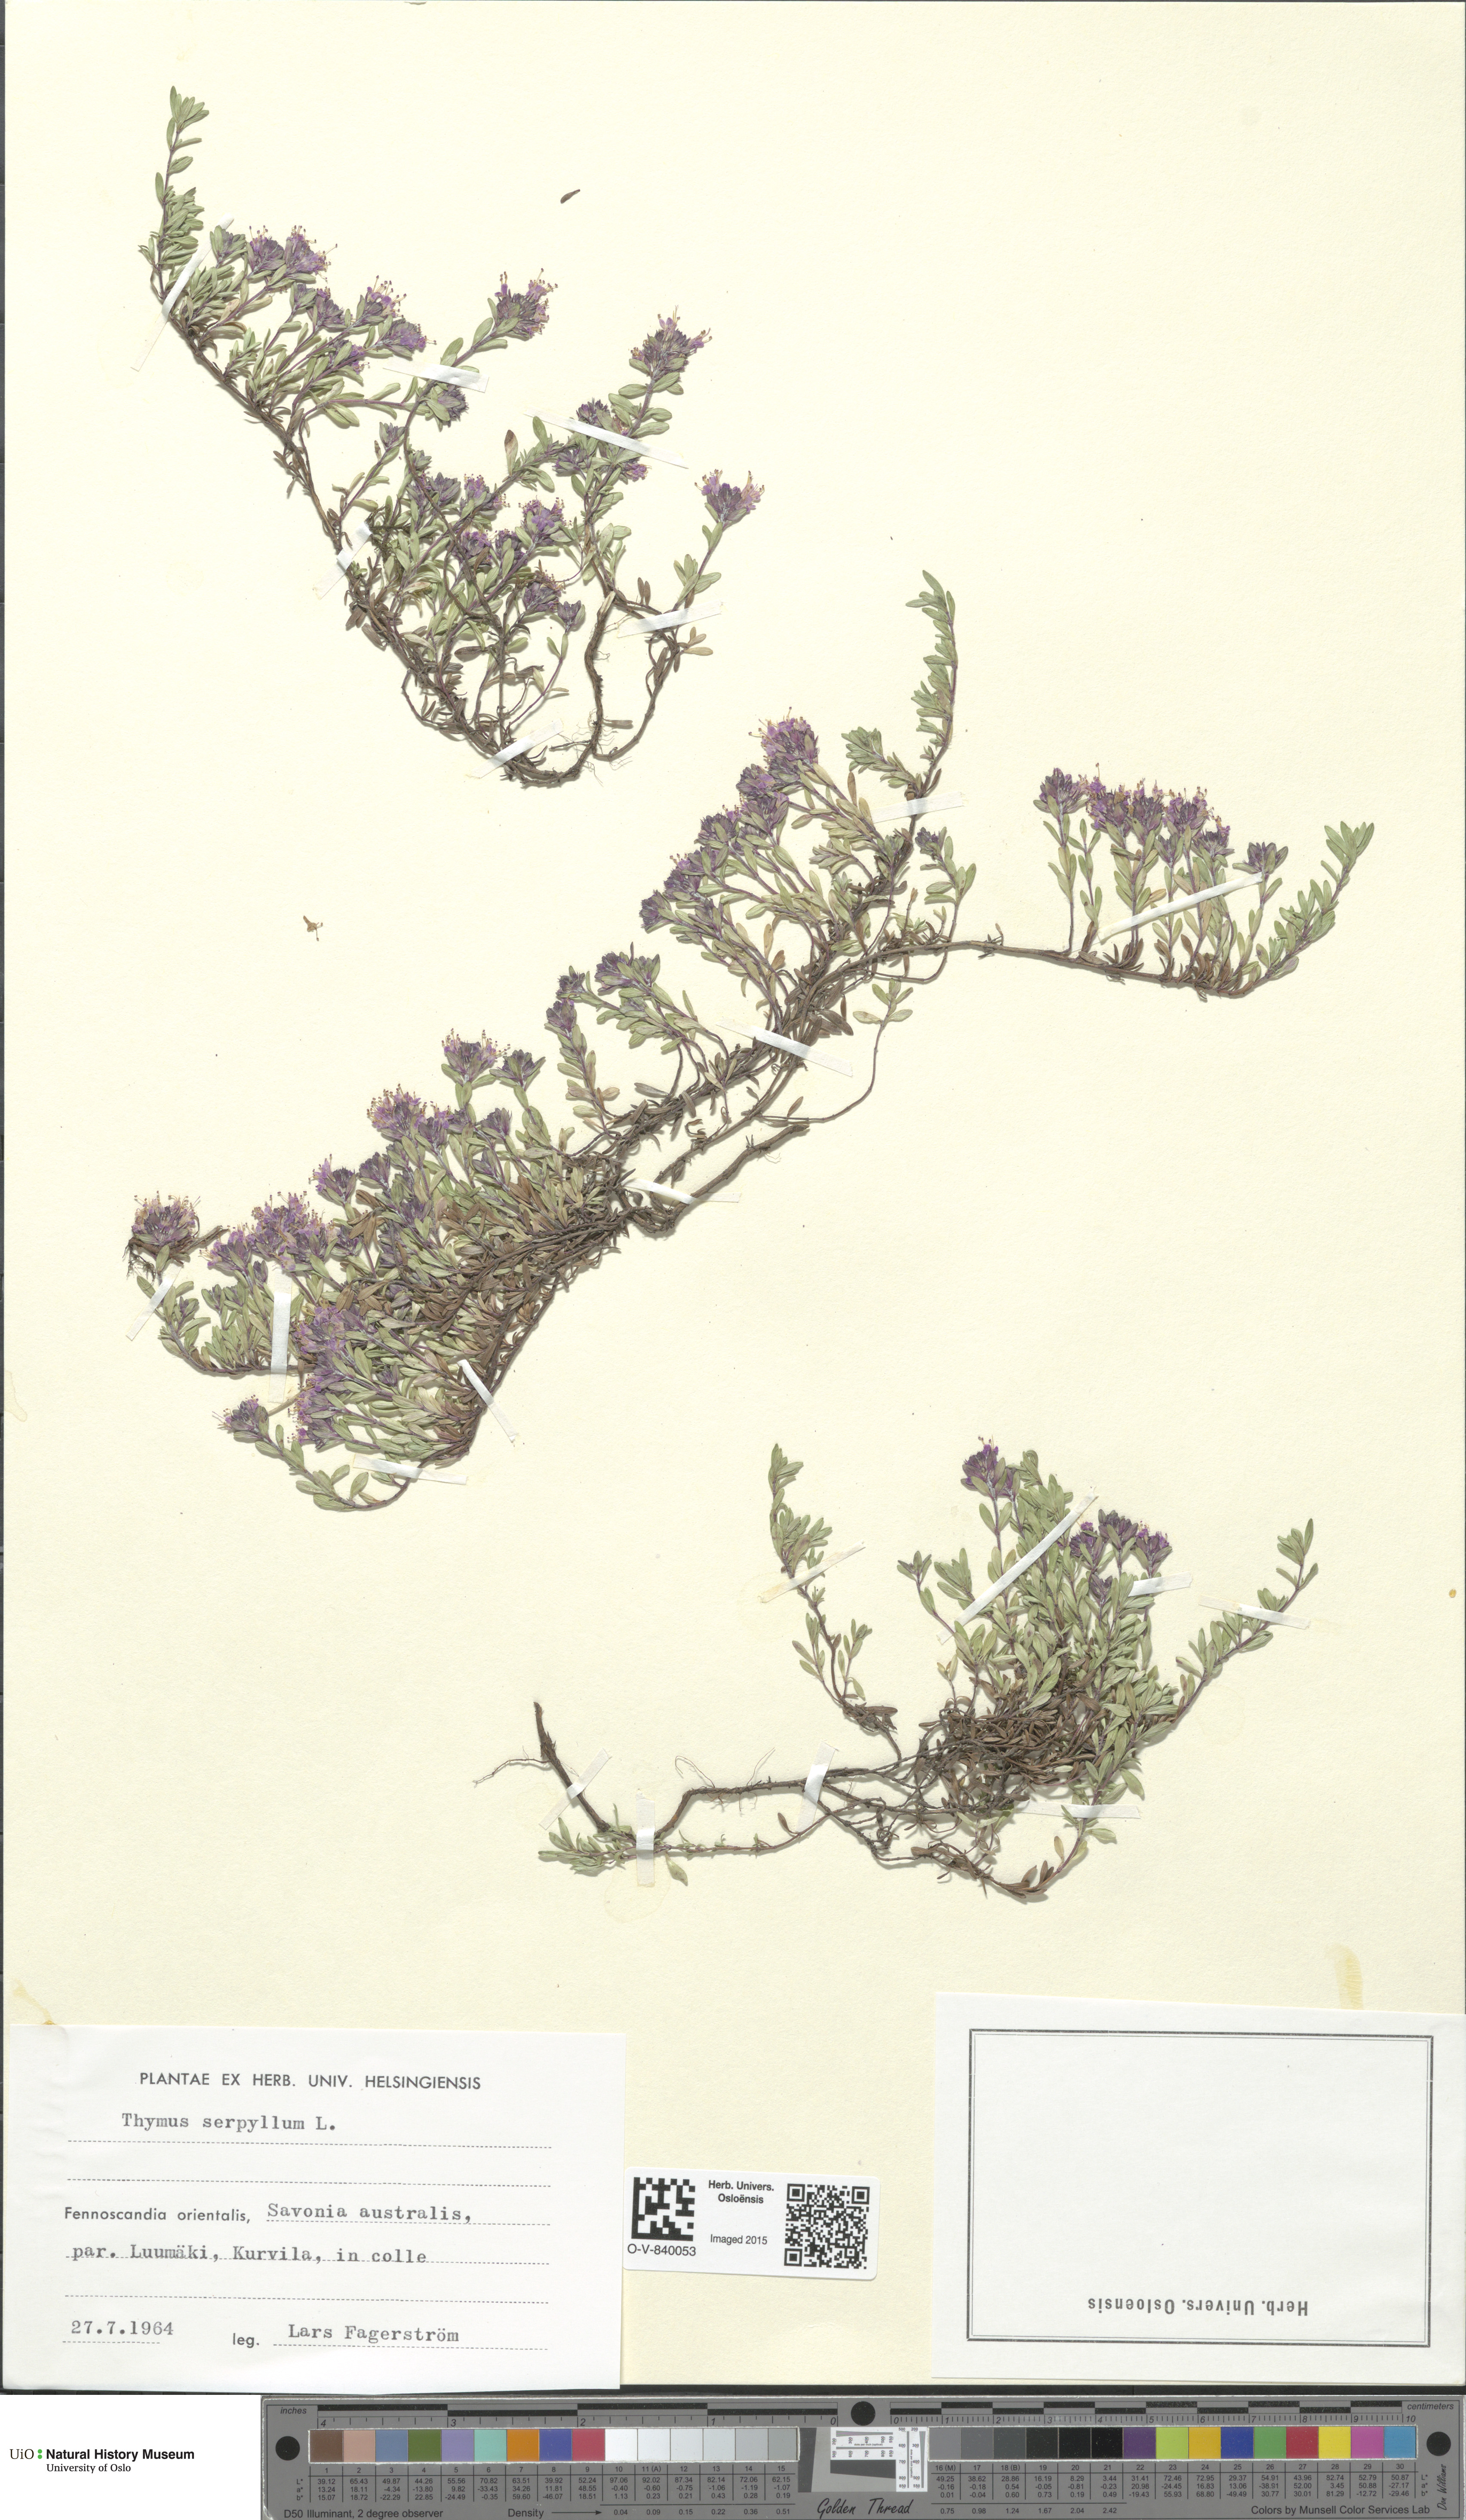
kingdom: Plantae
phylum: Tracheophyta
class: Magnoliopsida
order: Lamiales
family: Lamiaceae
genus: Thymus
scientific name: Thymus serpyllum
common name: Breckland thyme
